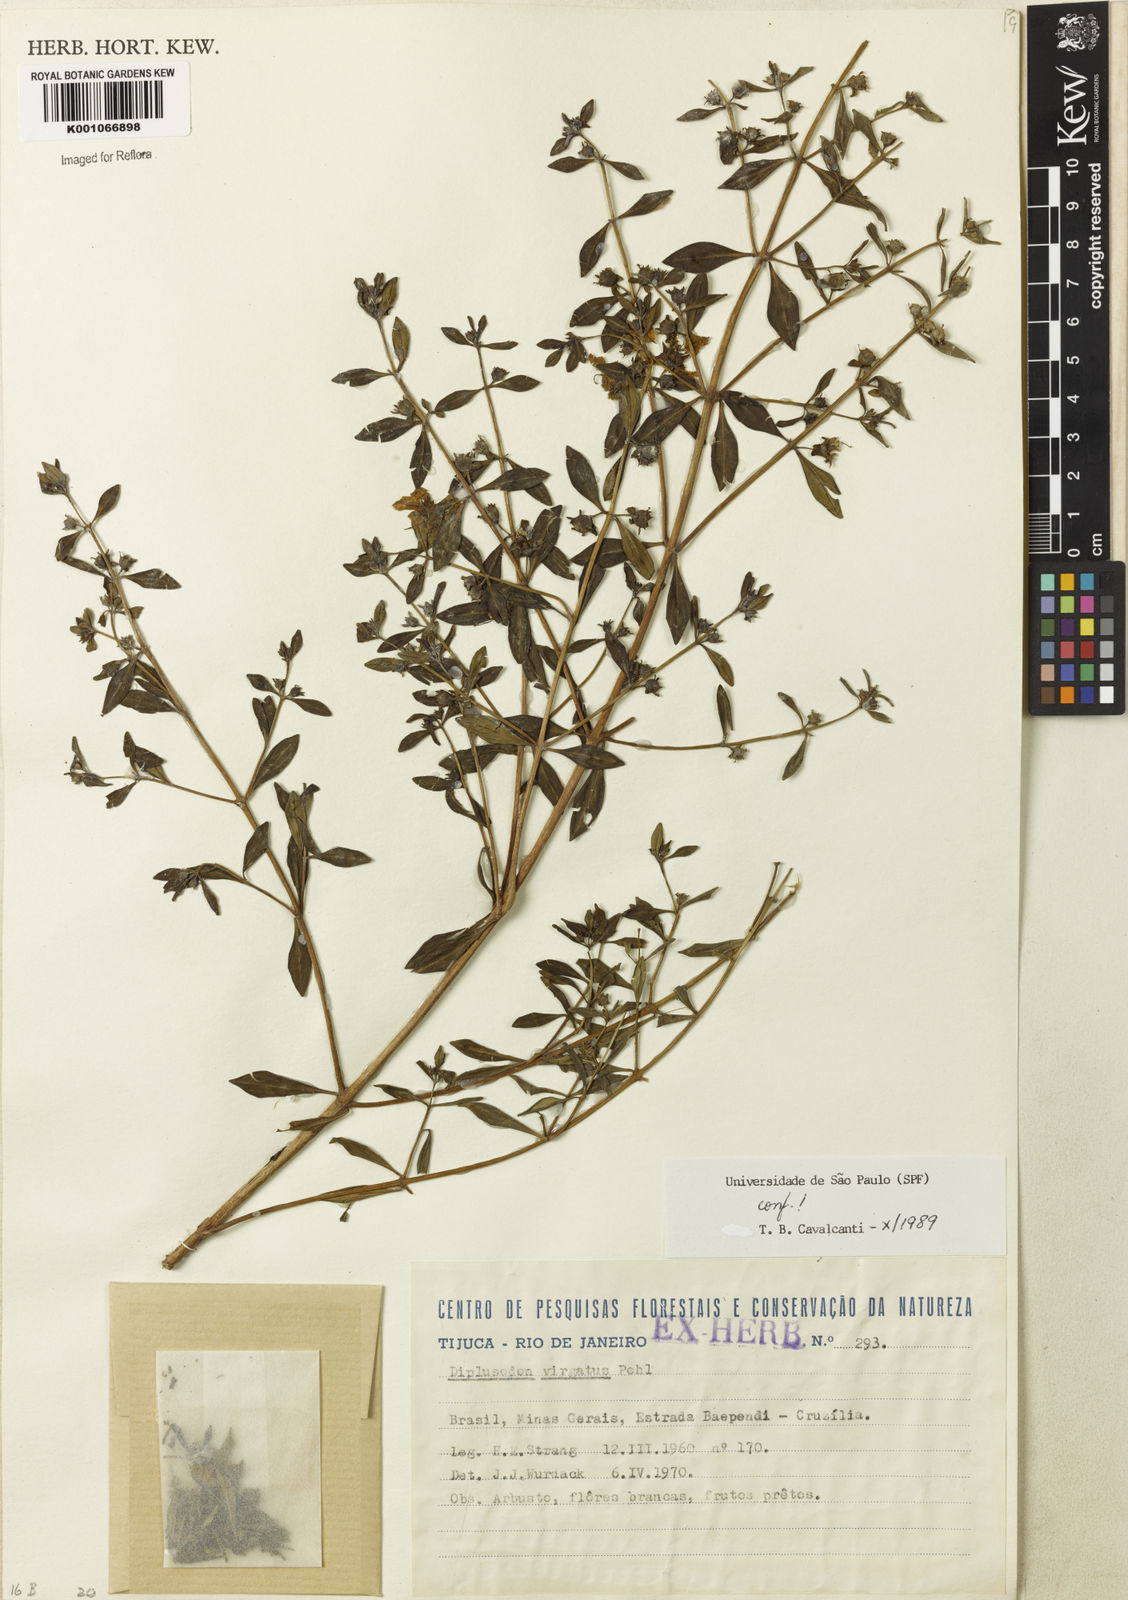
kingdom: Plantae
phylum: Tracheophyta
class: Magnoliopsida
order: Myrtales
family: Lythraceae
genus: Diplusodon
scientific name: Diplusodon virgatus
